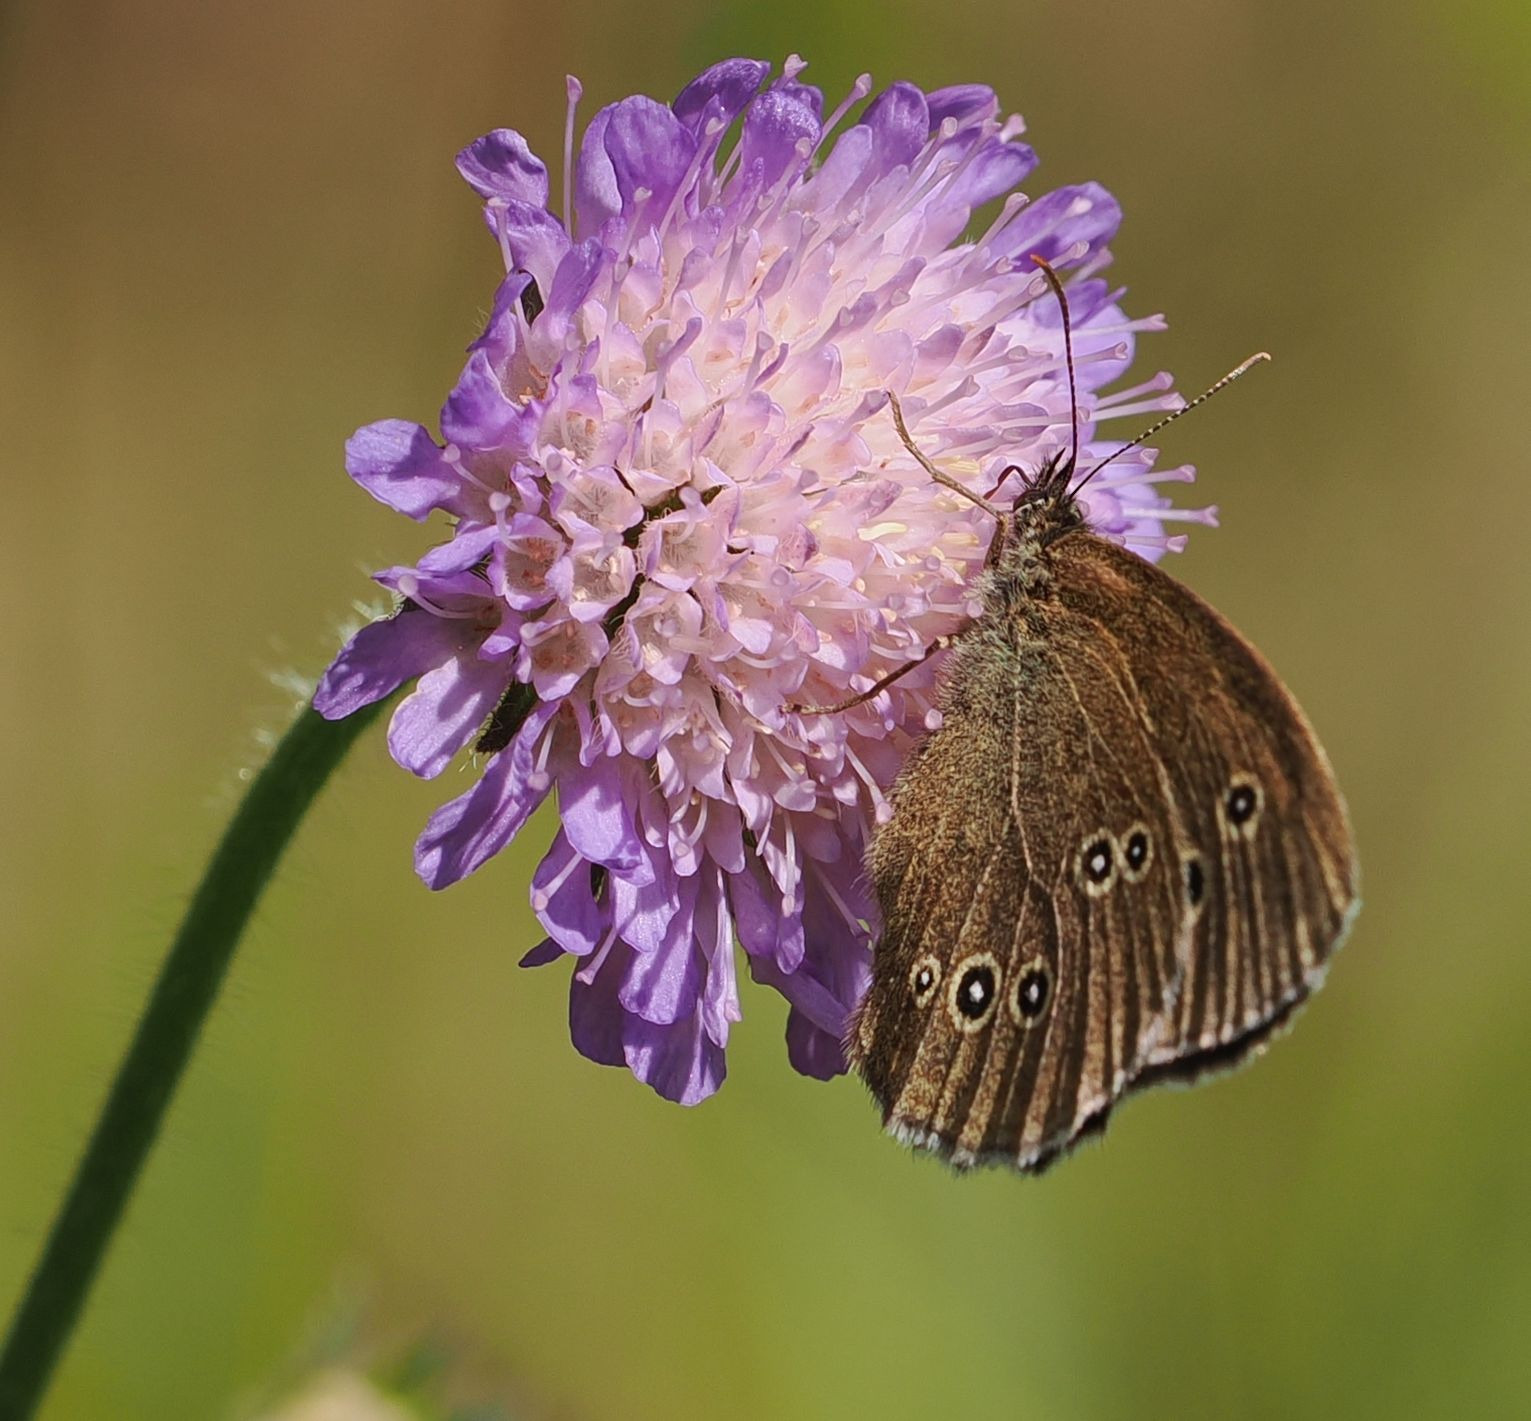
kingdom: Animalia
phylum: Arthropoda
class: Insecta
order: Lepidoptera
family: Nymphalidae
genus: Aphantopus
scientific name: Aphantopus hyperantus
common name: Engrandøje
